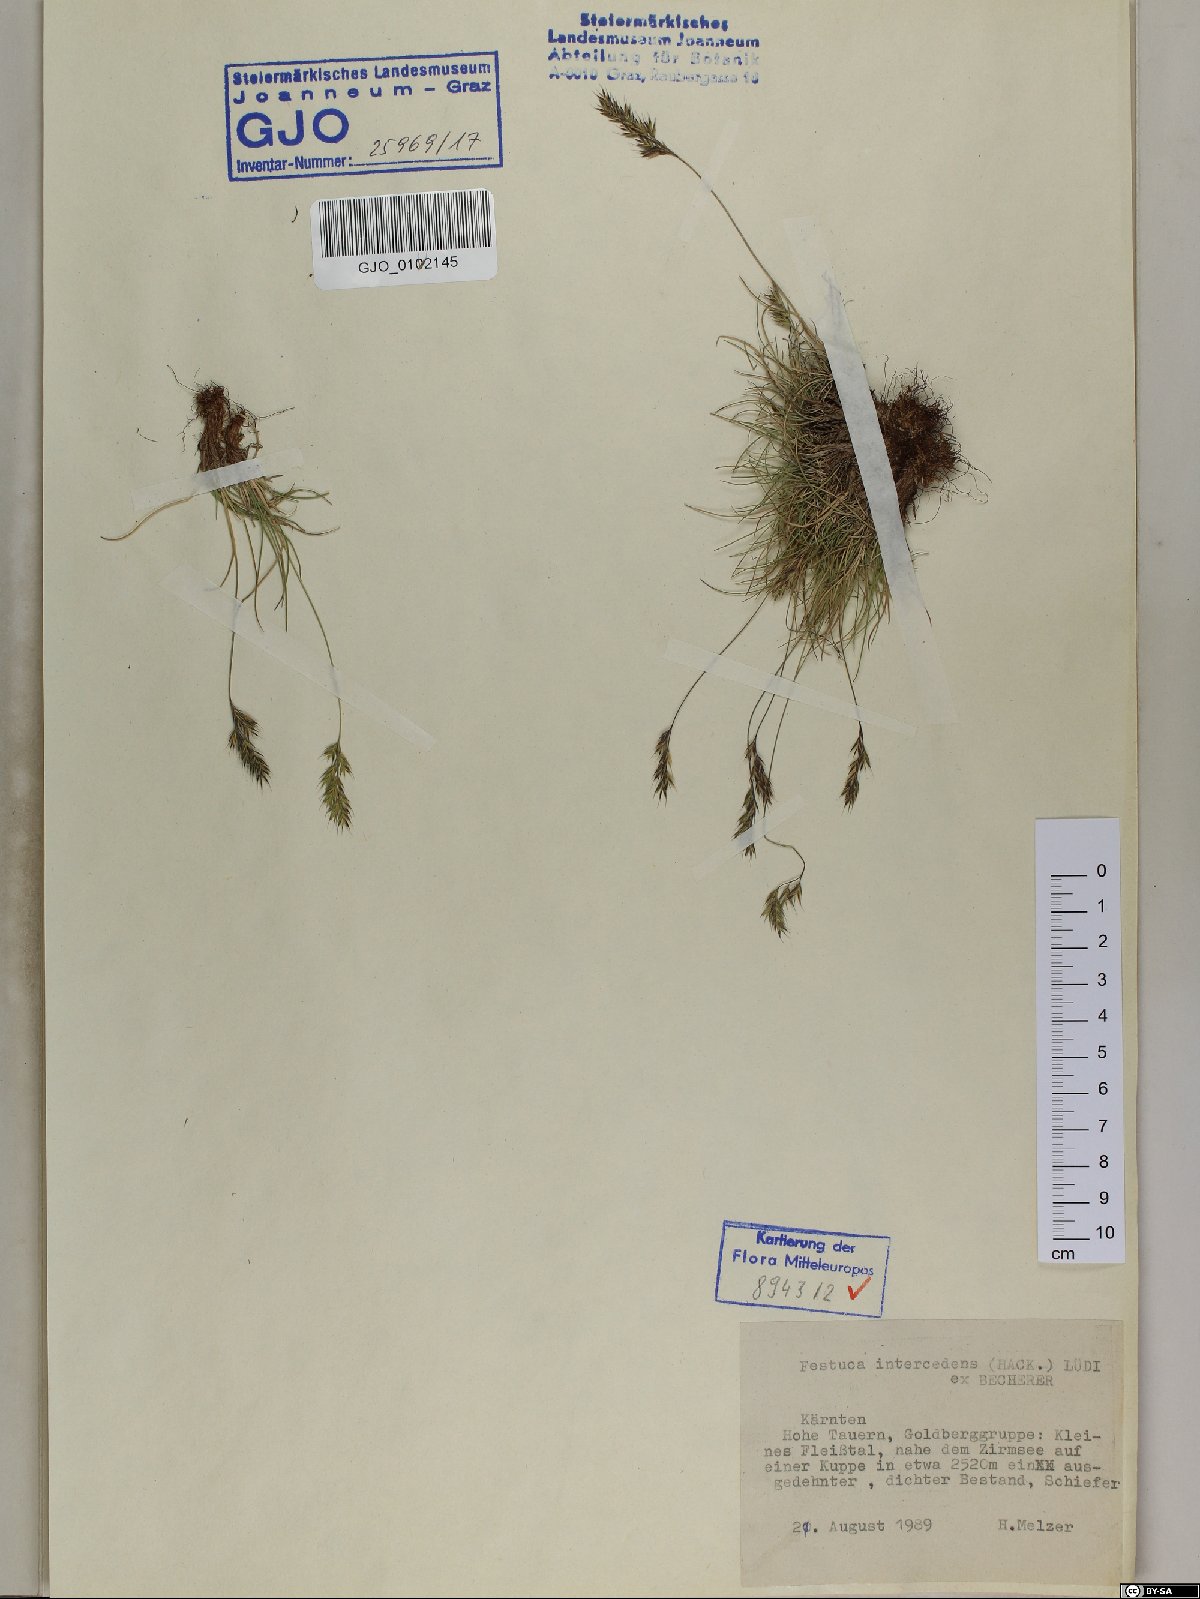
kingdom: Plantae
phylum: Tracheophyta
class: Liliopsida
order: Poales
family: Poaceae
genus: Festuca
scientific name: Festuca intercedens
